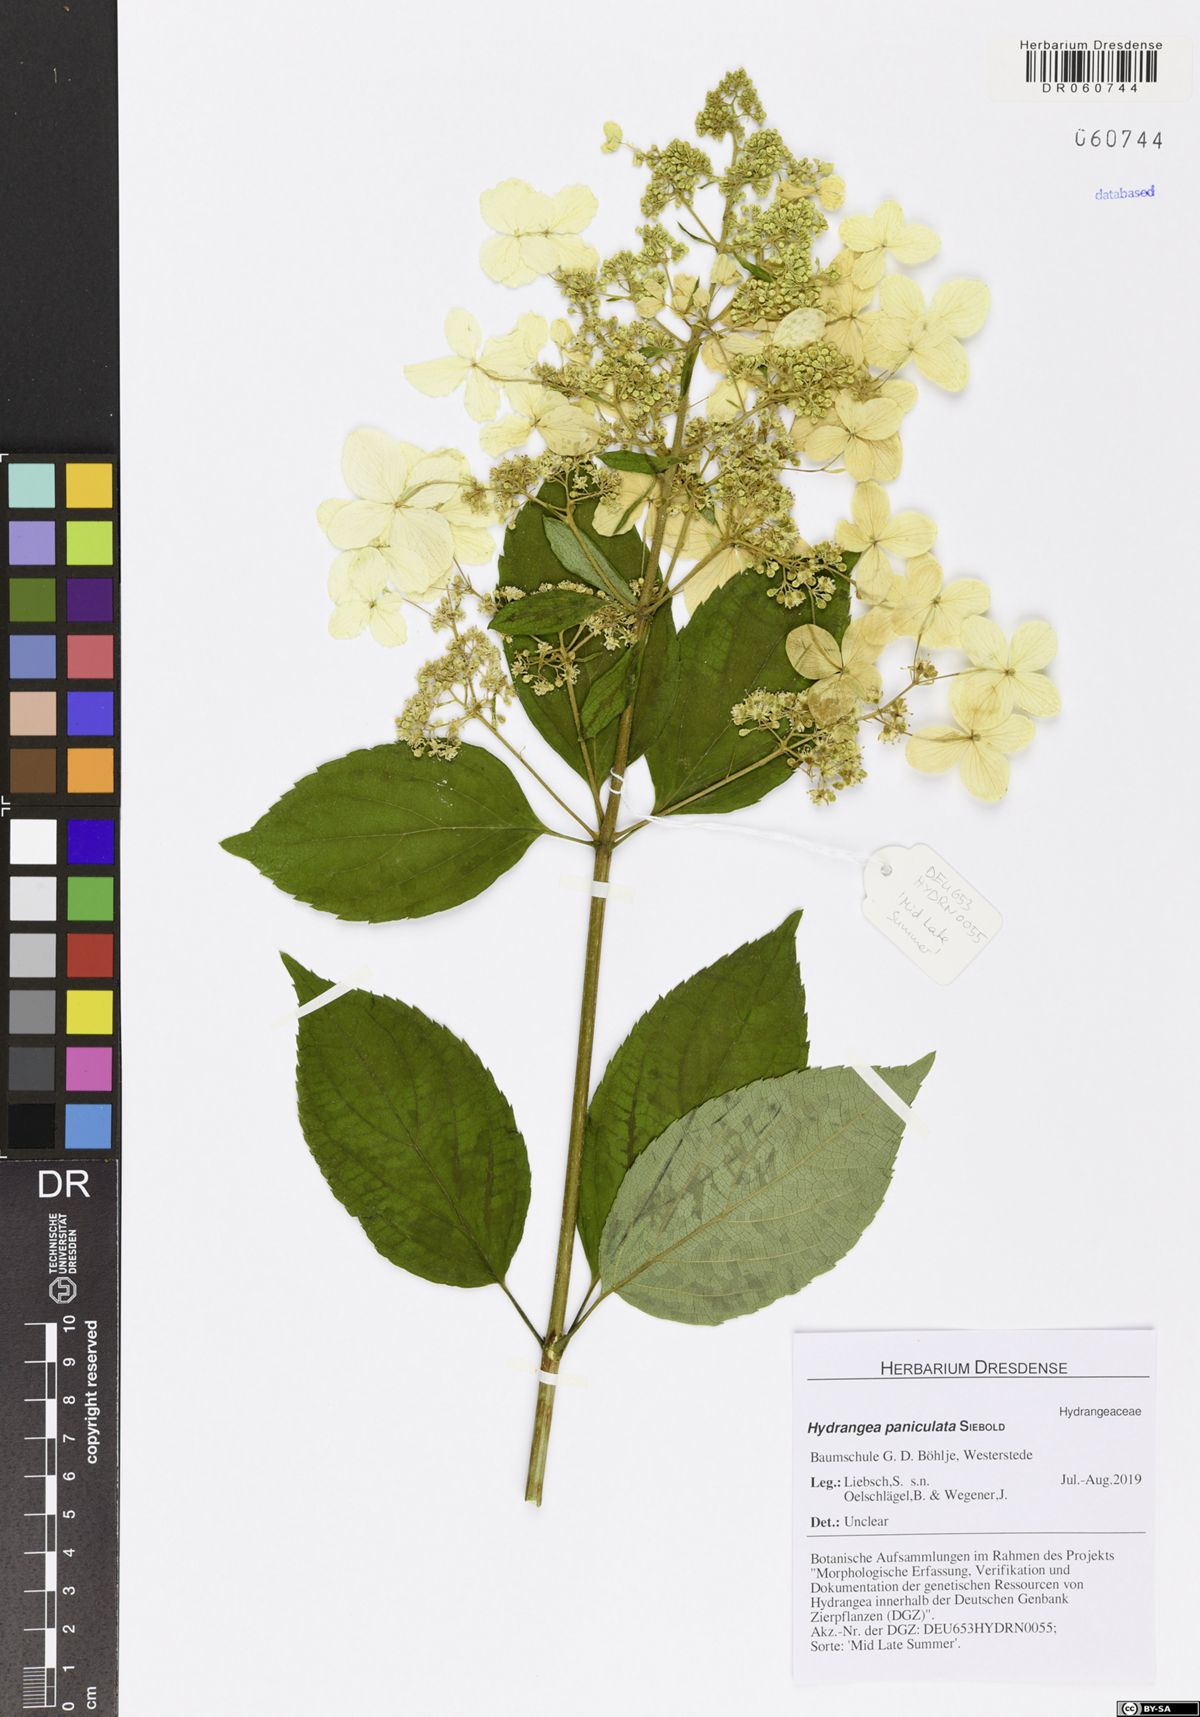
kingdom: Plantae
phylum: Tracheophyta
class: Magnoliopsida
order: Cornales
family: Hydrangeaceae
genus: Hydrangea
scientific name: Hydrangea paniculata
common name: Panicled hydrangea
